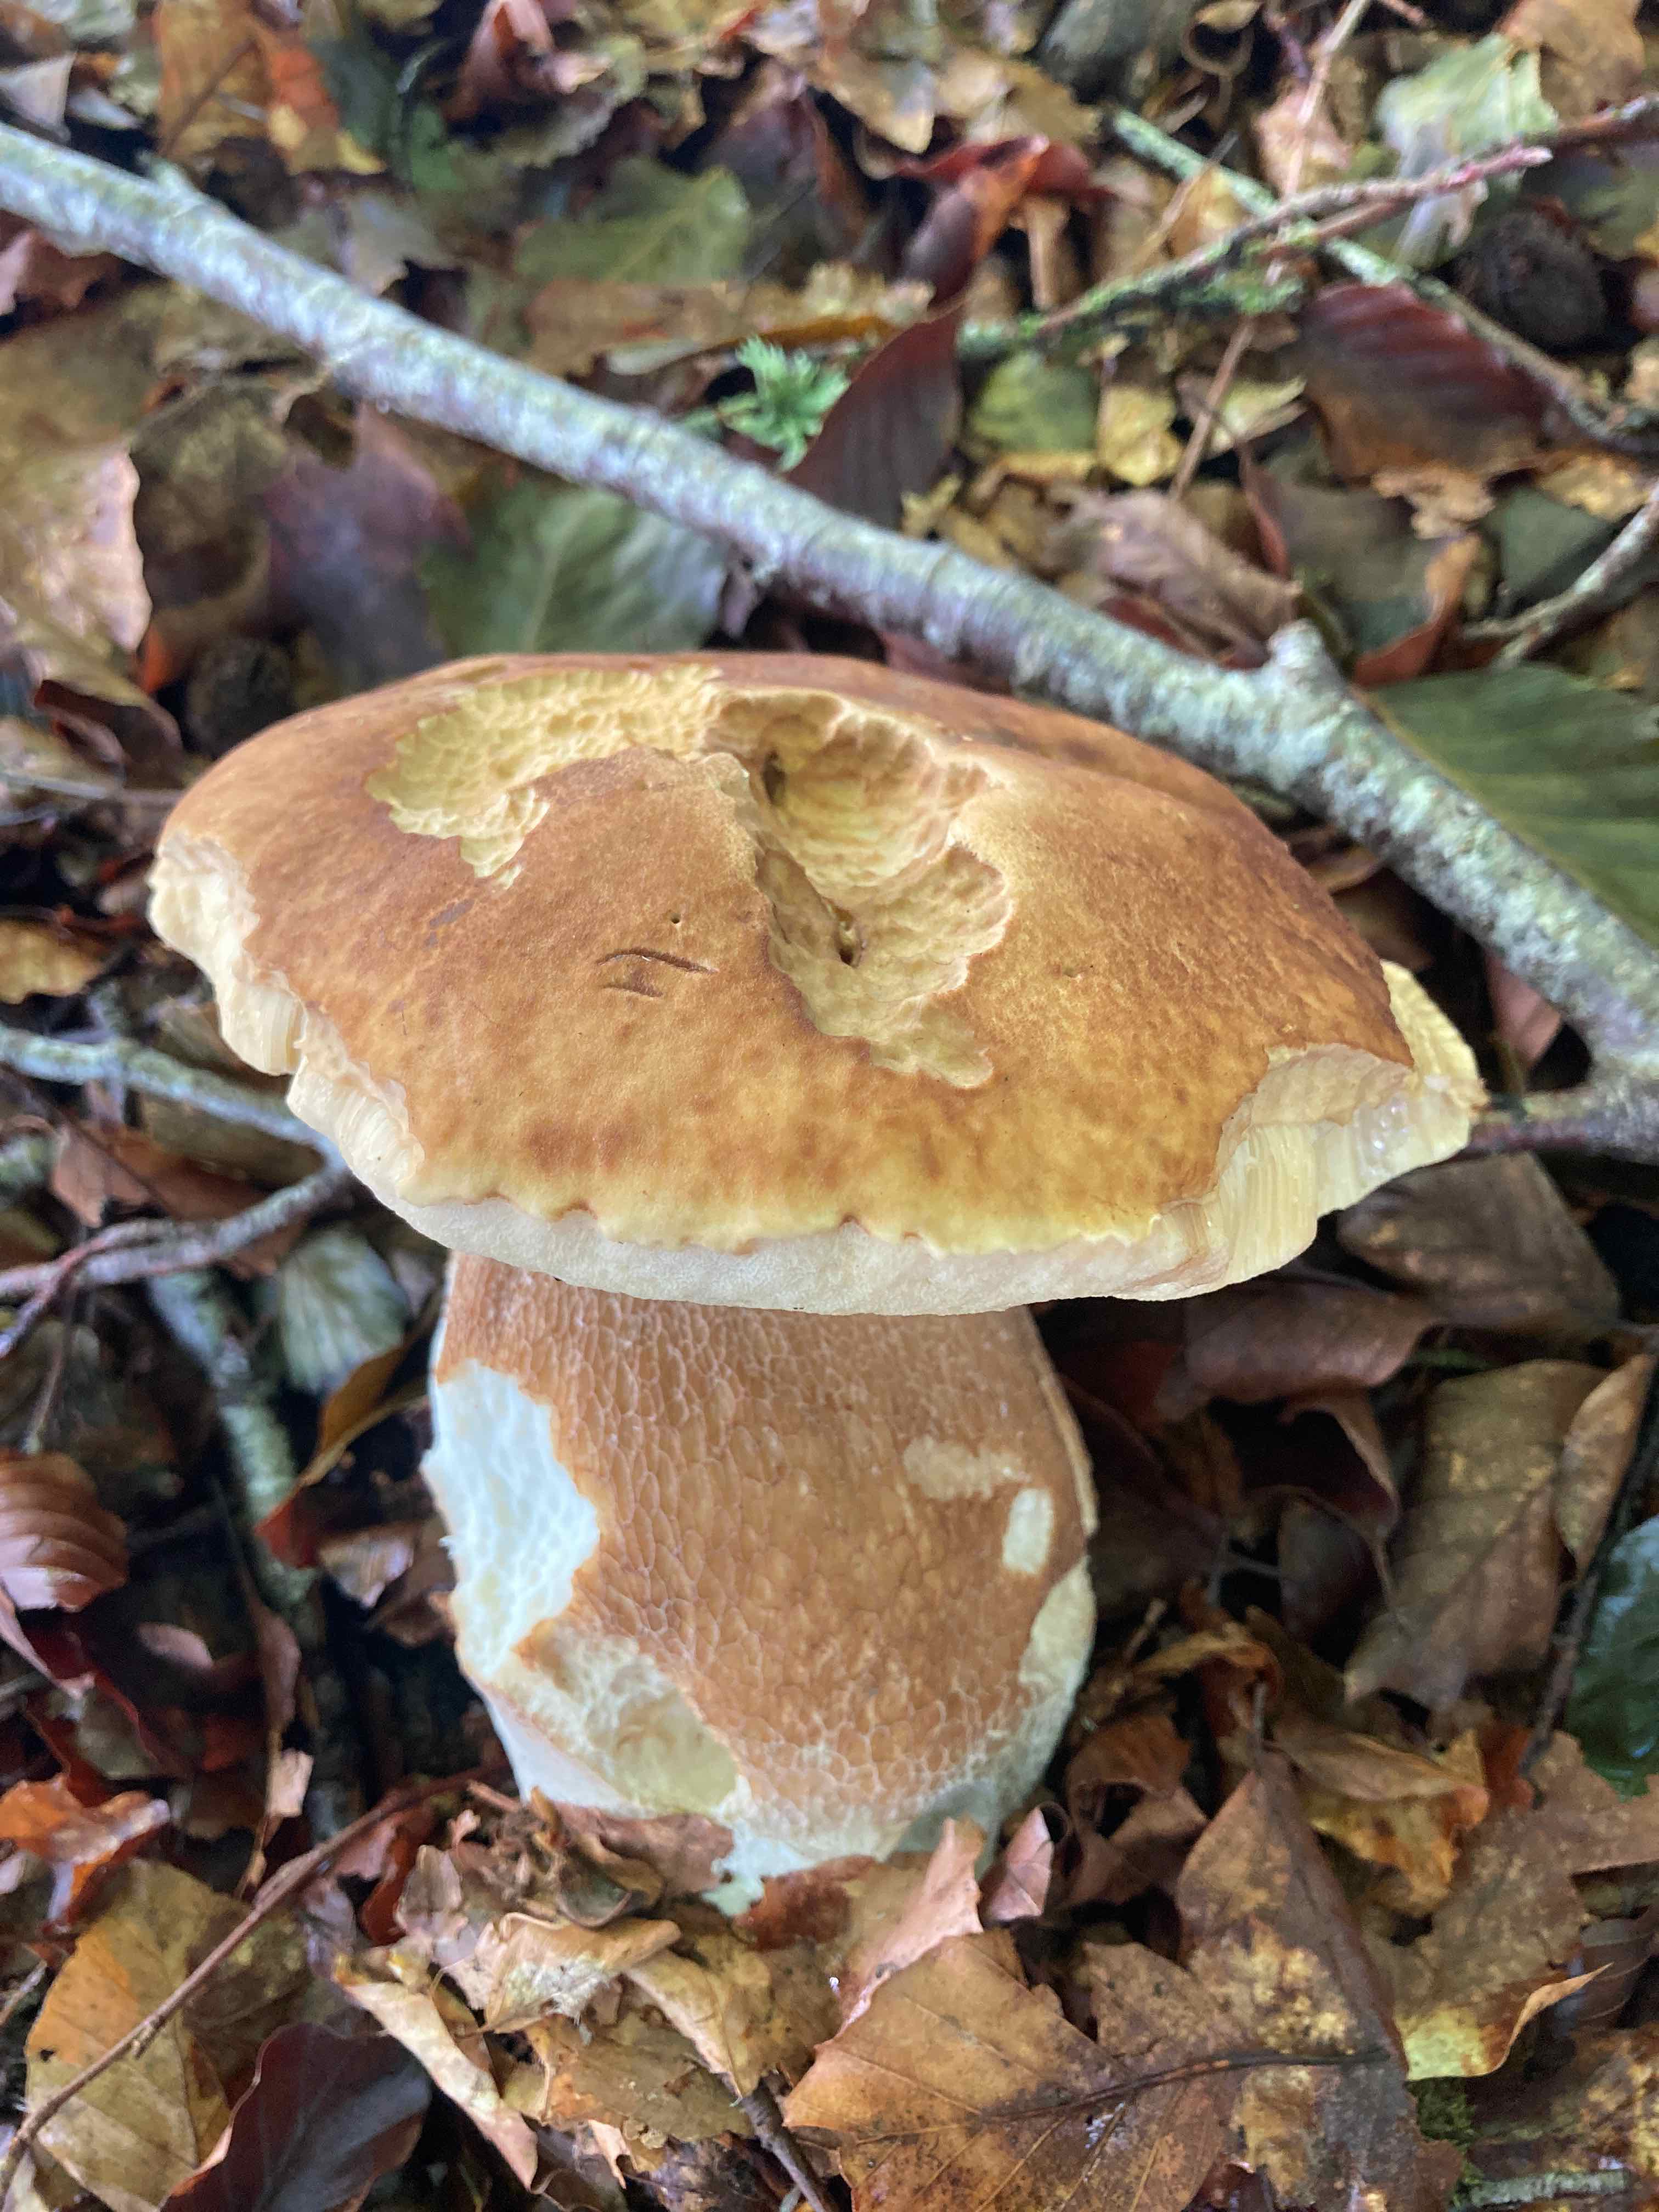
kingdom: Fungi
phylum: Basidiomycota
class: Agaricomycetes
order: Boletales
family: Boletaceae
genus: Boletus
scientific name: Boletus reticulatus
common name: sommer-rørhat
